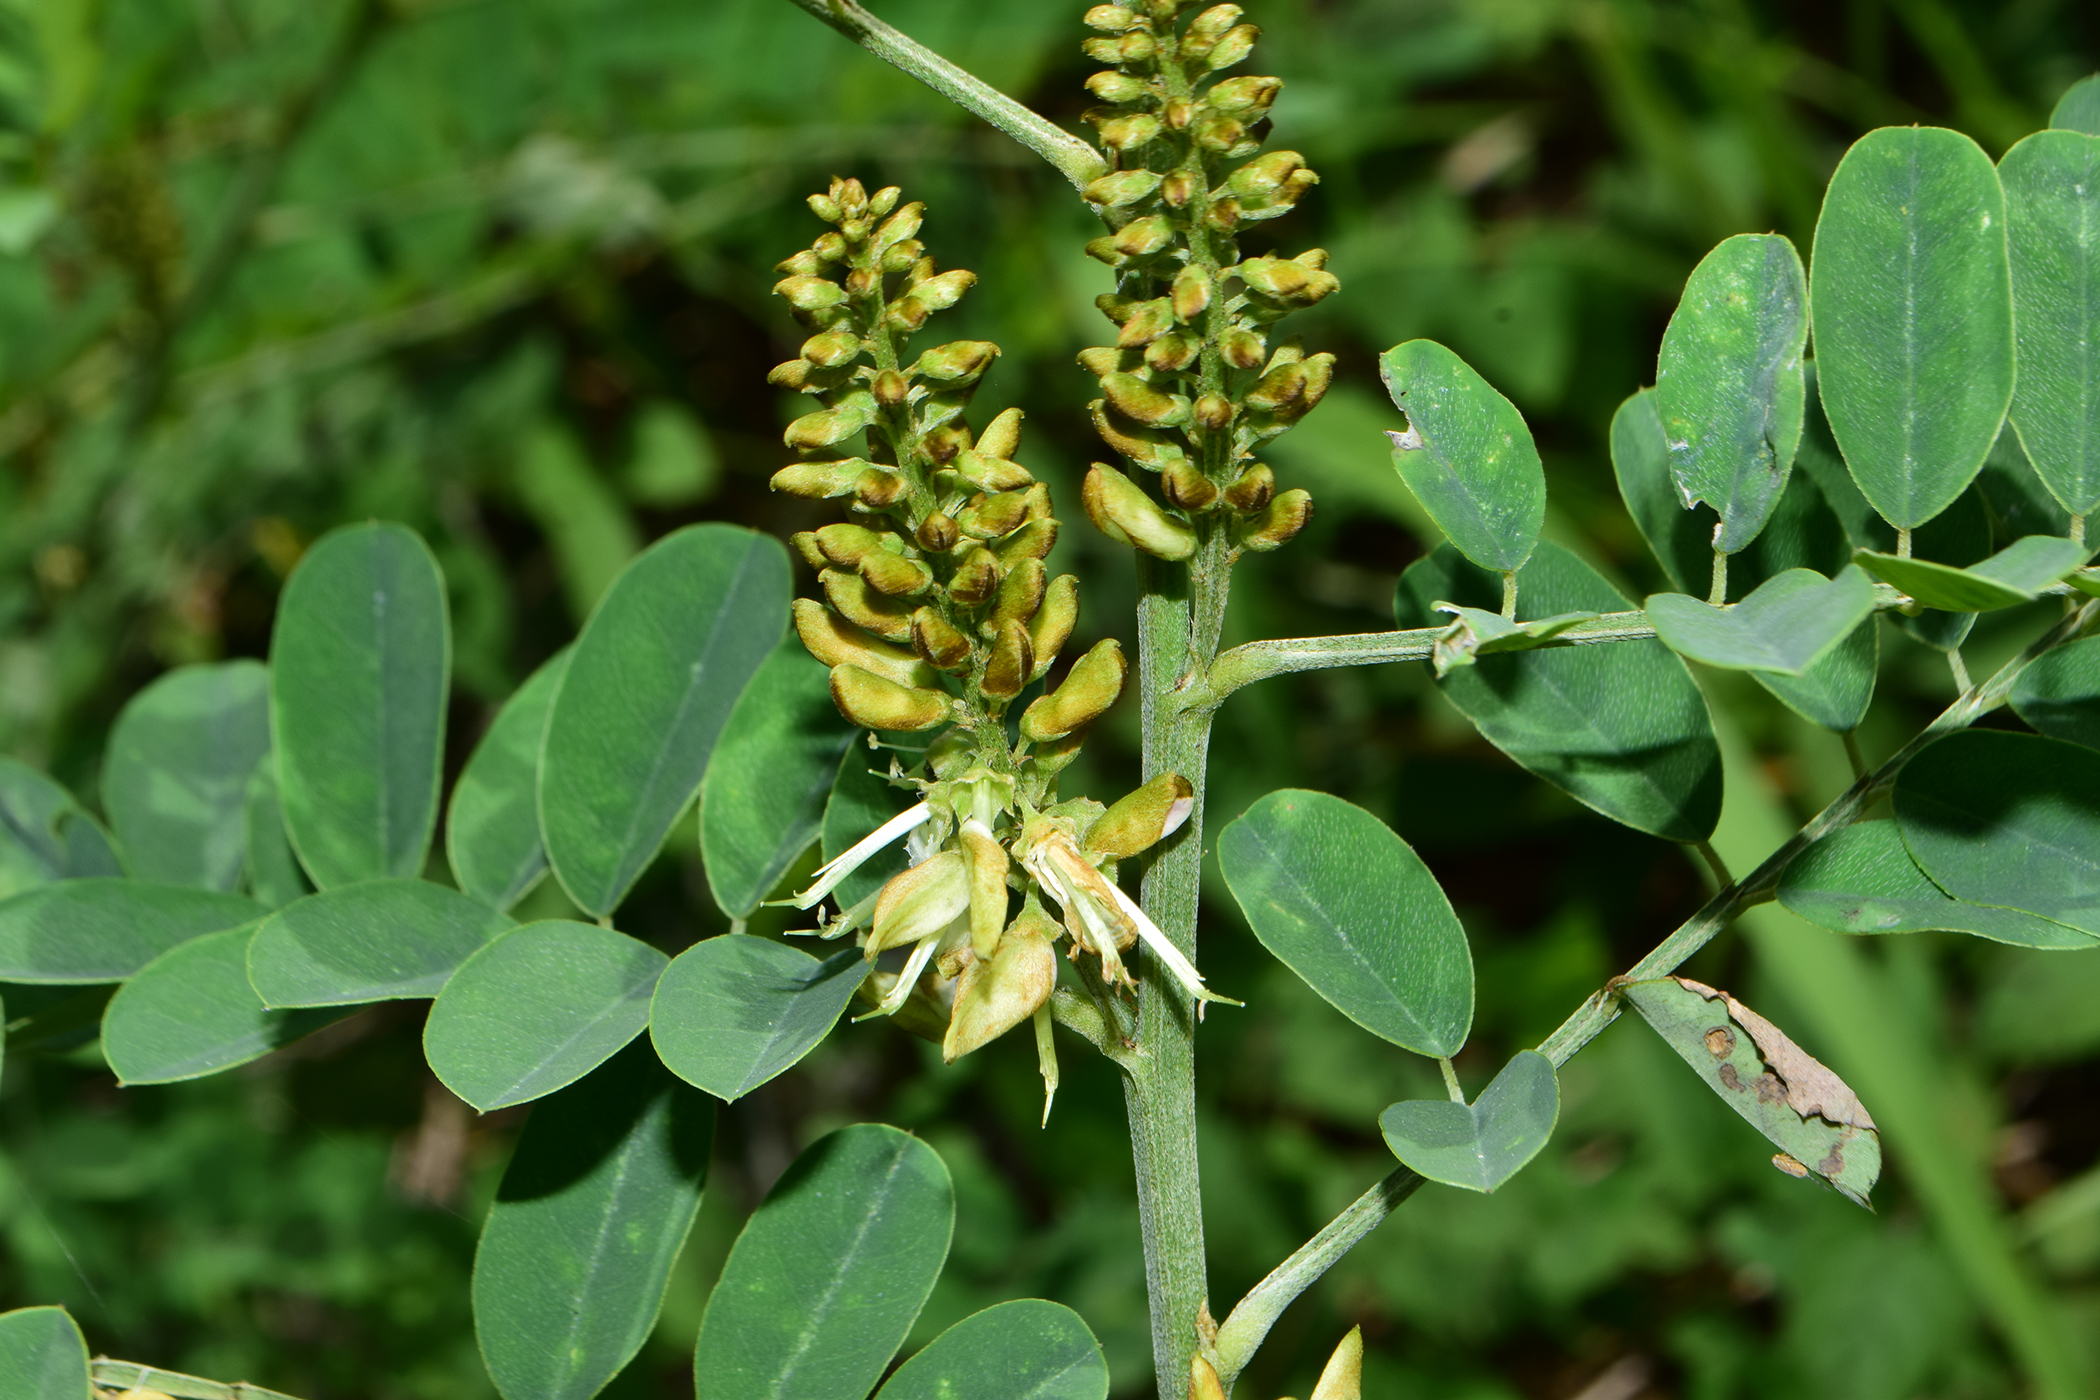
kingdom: Plantae
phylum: Tracheophyta
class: Magnoliopsida
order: Fabales
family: Fabaceae
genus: Indigofera
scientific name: Indigofera galegoides
